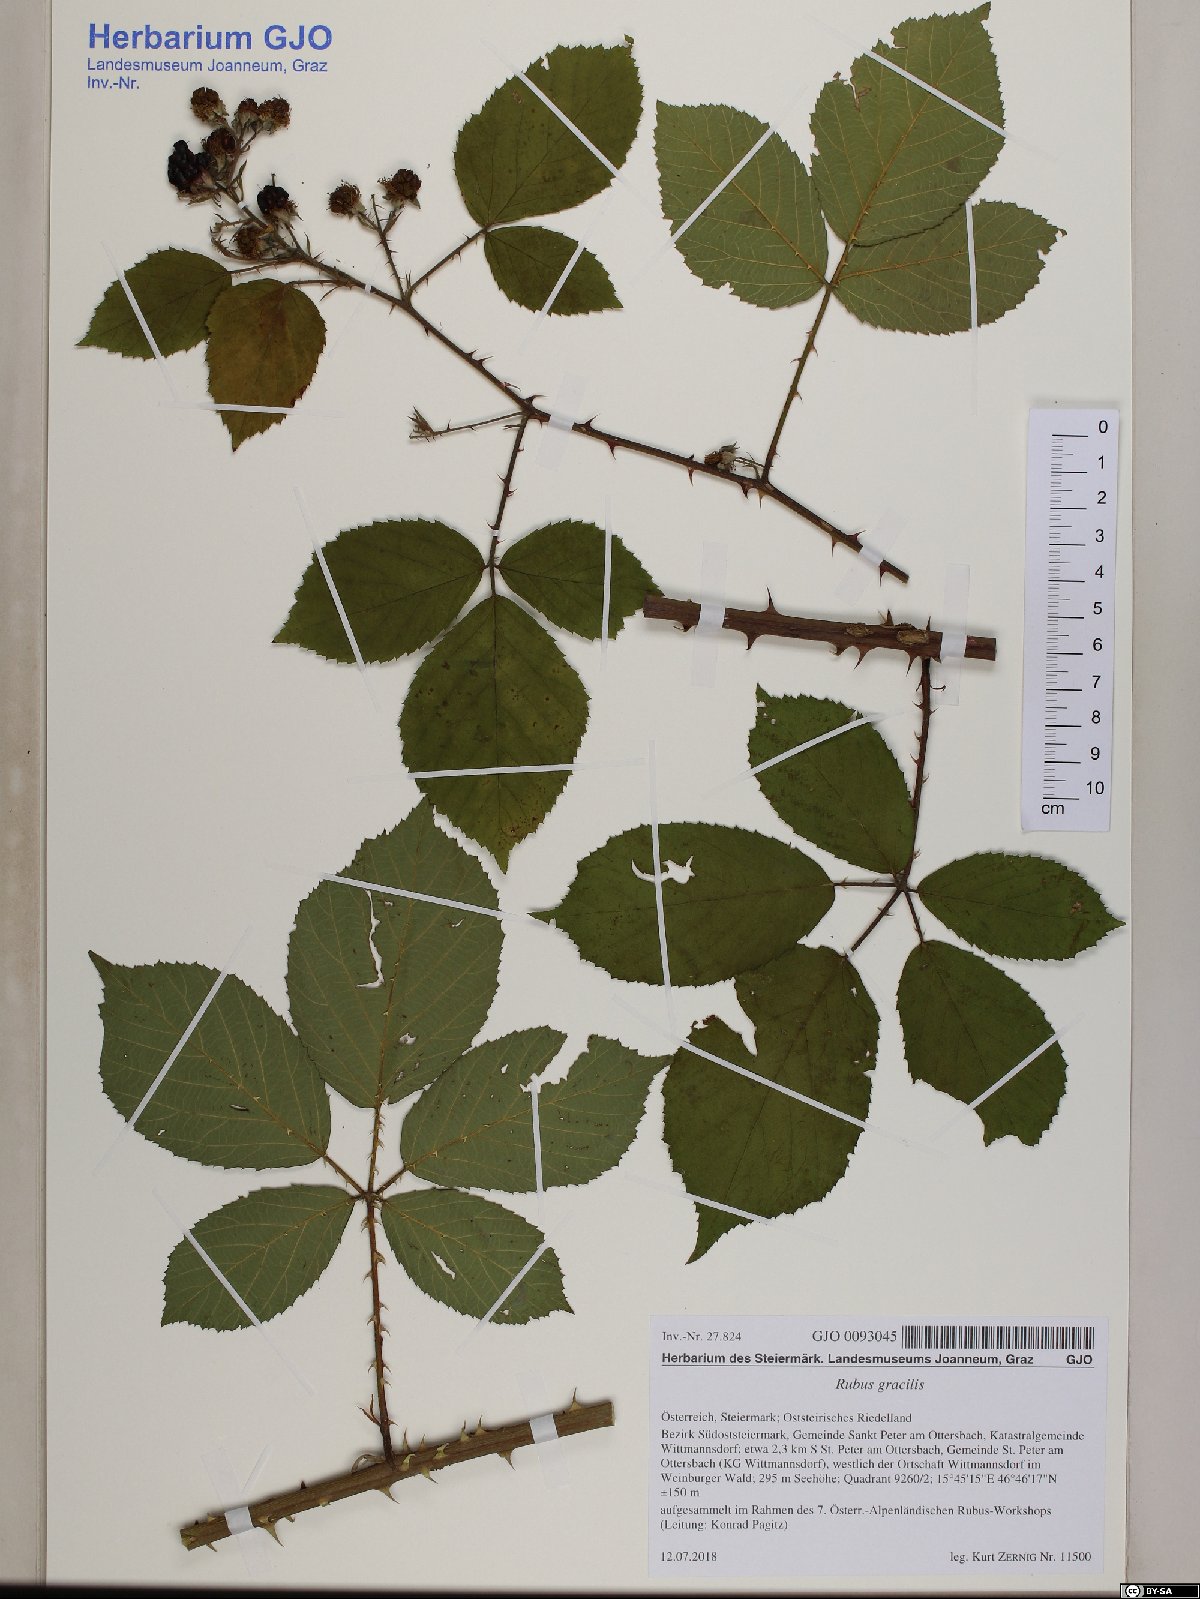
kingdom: Plantae
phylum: Tracheophyta
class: Magnoliopsida
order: Rosales
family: Rosaceae
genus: Rubus
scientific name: Rubus gracilis
